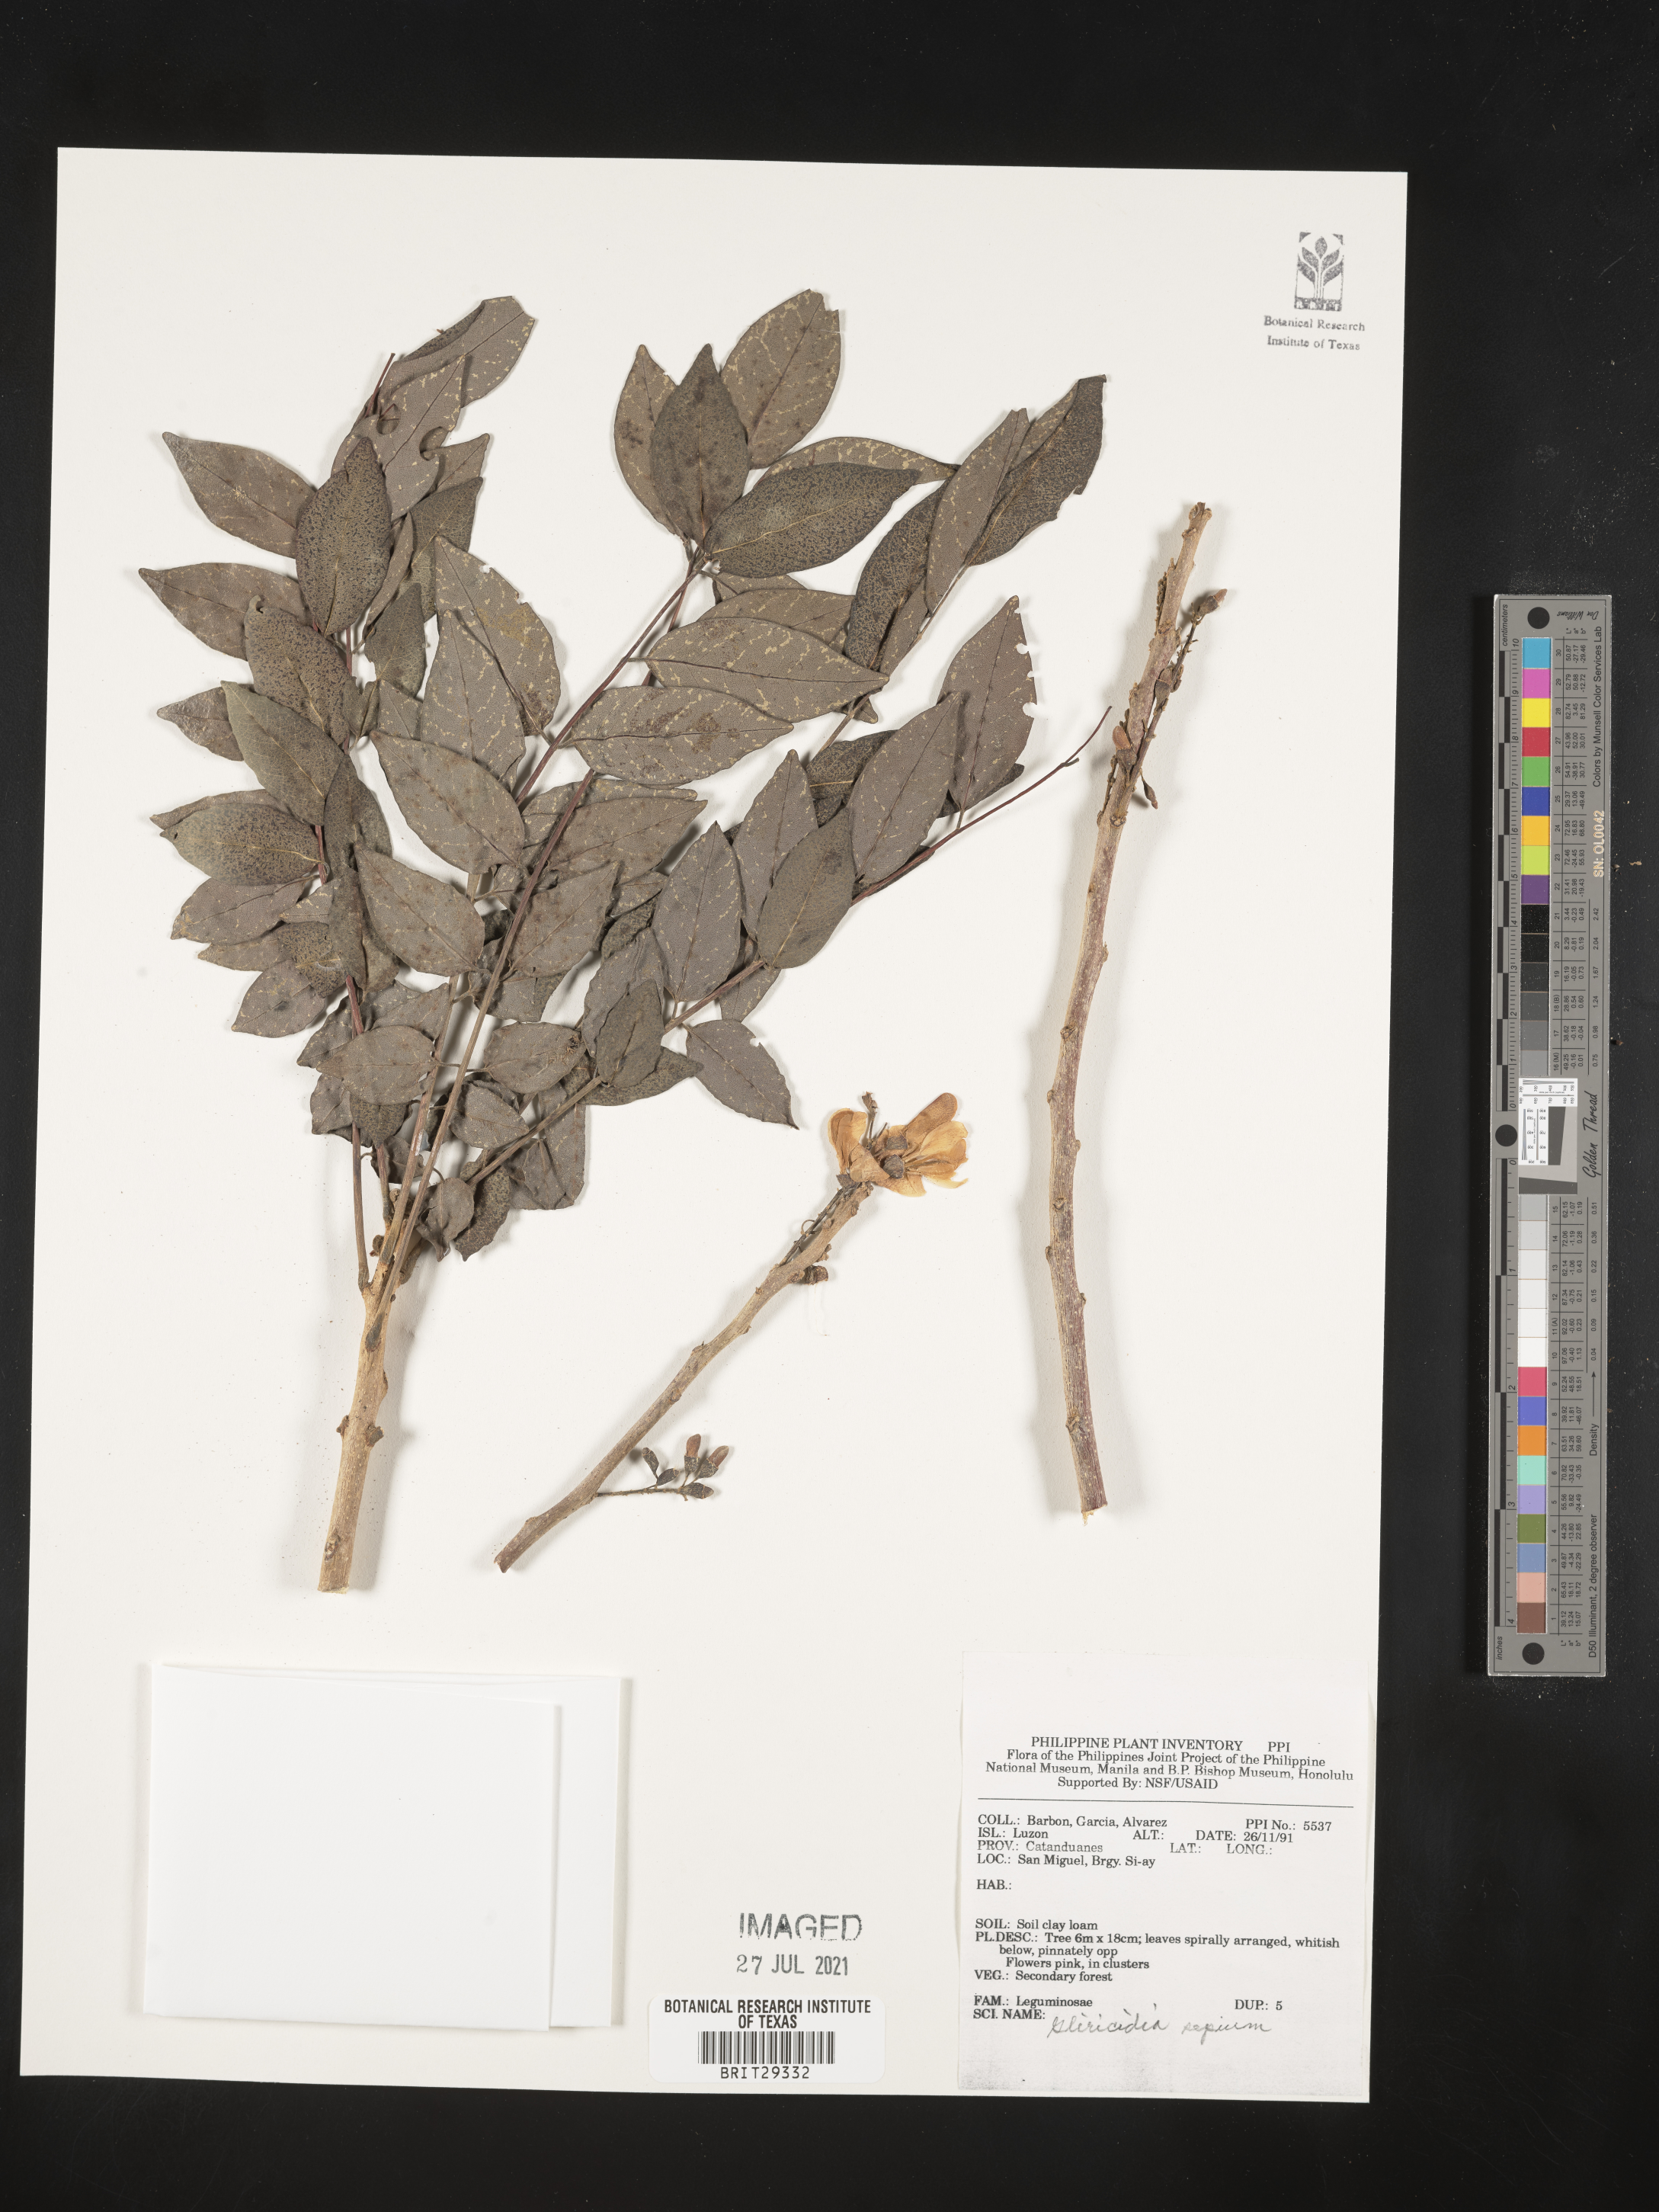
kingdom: Plantae
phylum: Tracheophyta
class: Magnoliopsida
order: Fabales
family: Fabaceae
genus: Gliricidia
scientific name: Gliricidia sepium
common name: Quickstick
